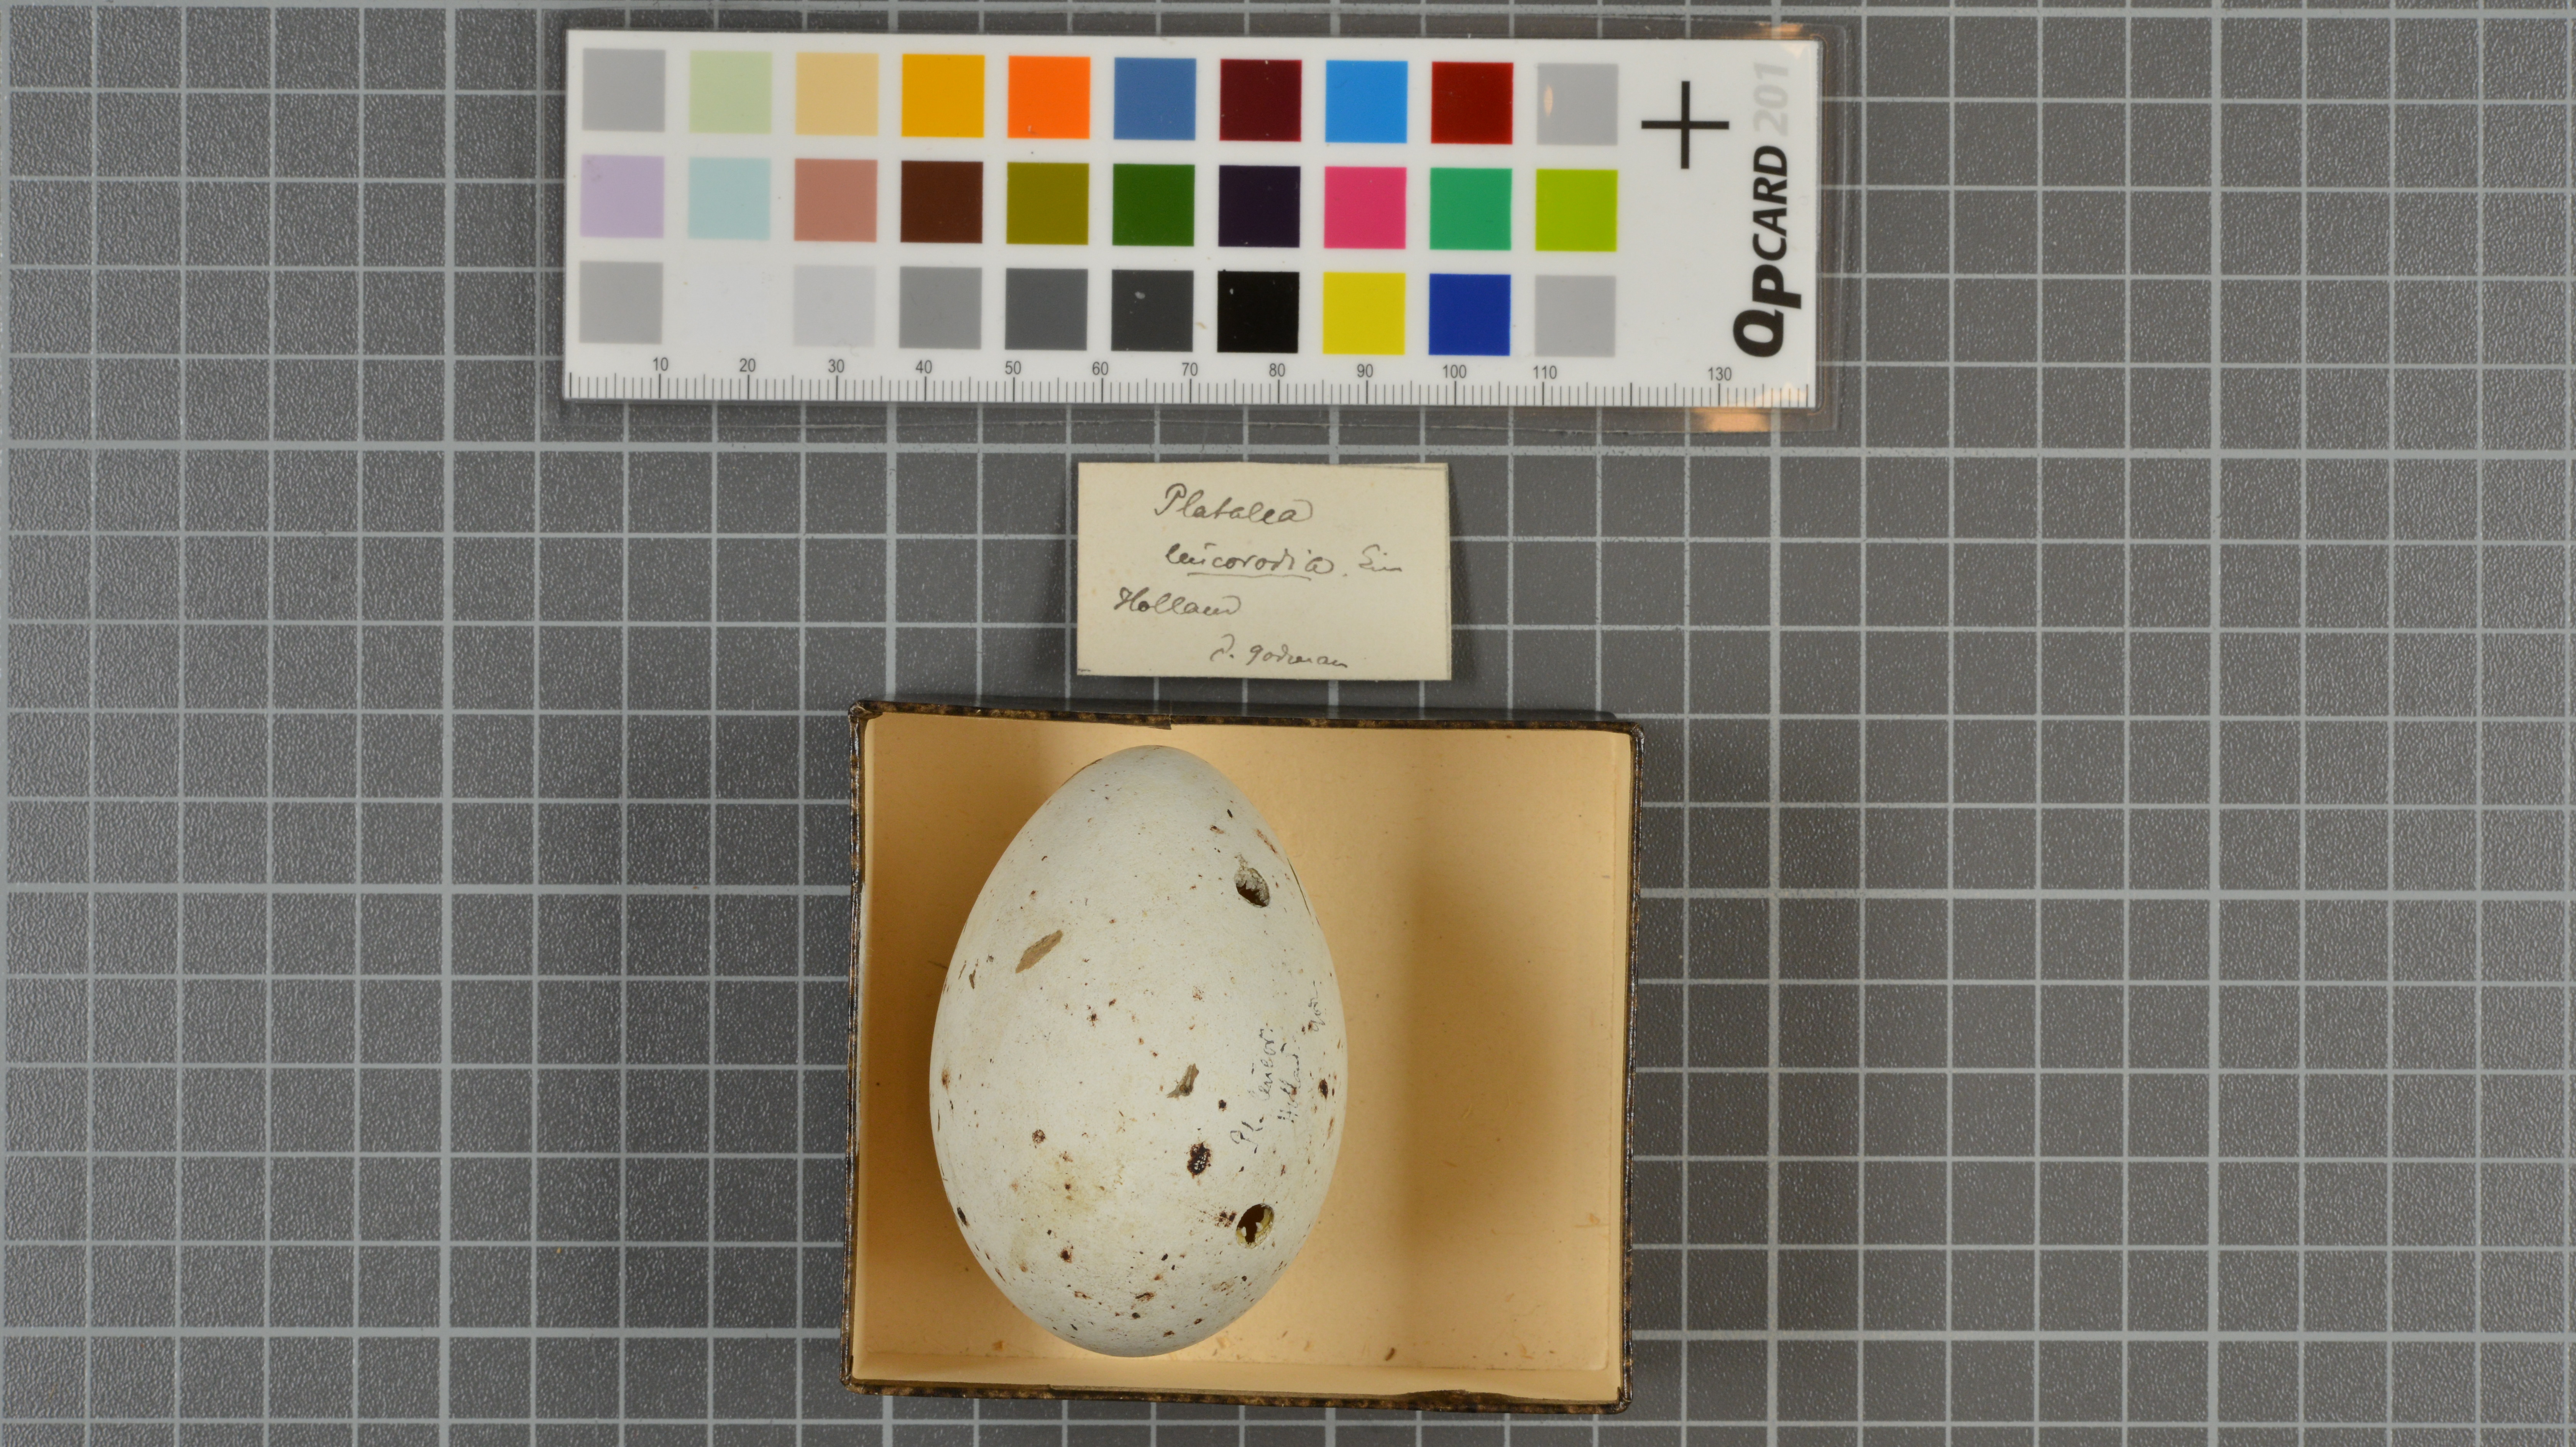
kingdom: Animalia
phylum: Chordata
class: Aves
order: Pelecaniformes
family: Threskiornithidae
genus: Platalea
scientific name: Platalea leucorodia
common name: Eurasian spoonbill
